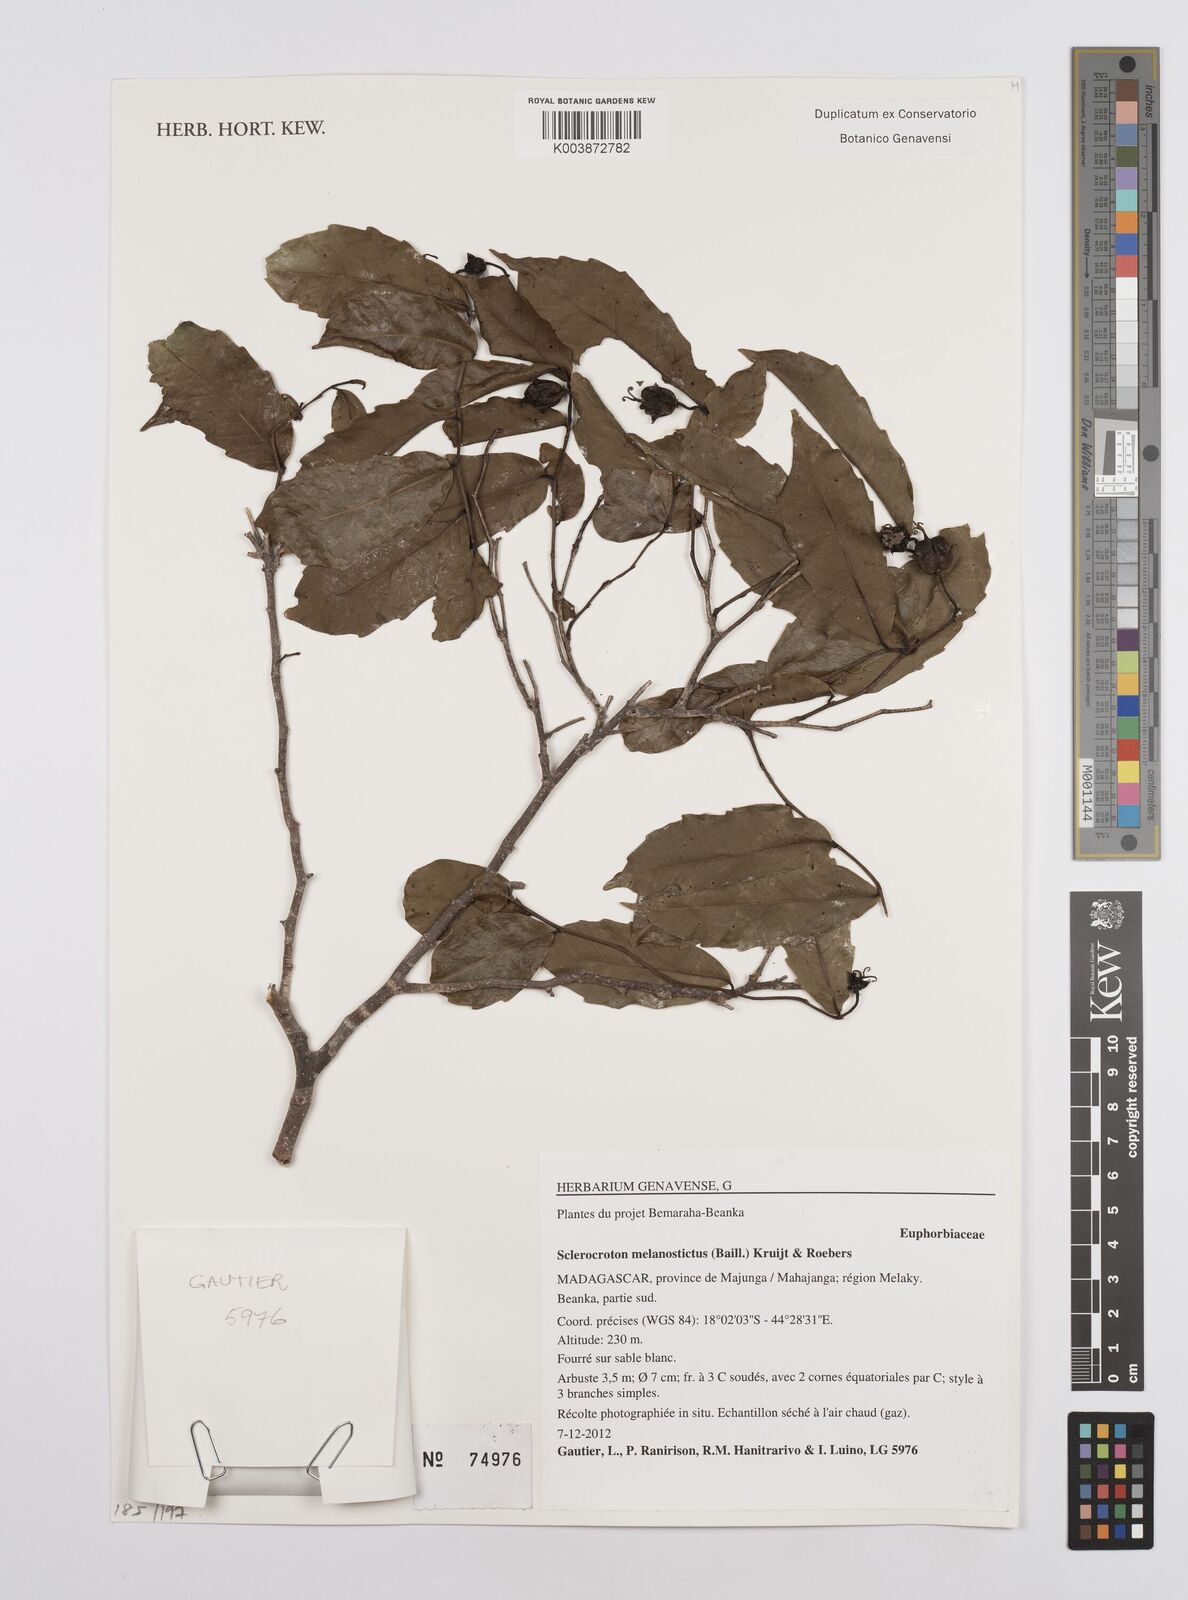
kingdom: Plantae
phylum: Tracheophyta
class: Magnoliopsida
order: Malpighiales
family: Euphorbiaceae
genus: Sclerocroton
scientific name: Sclerocroton melanostictus
